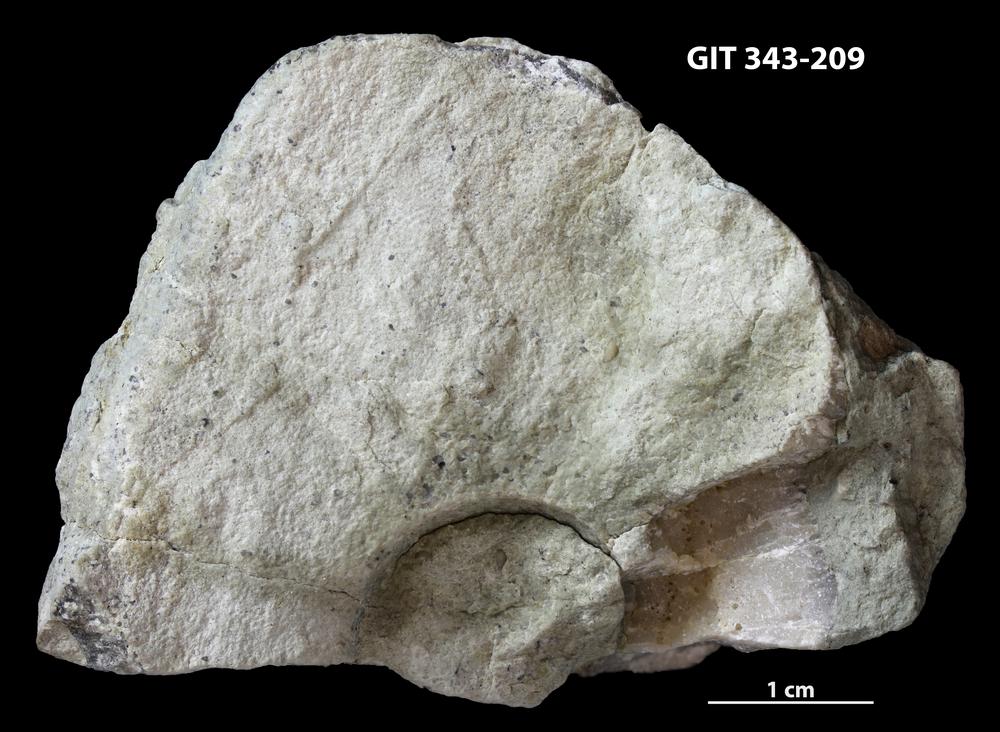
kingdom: Animalia
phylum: Bryozoa
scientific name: Bryozoa
